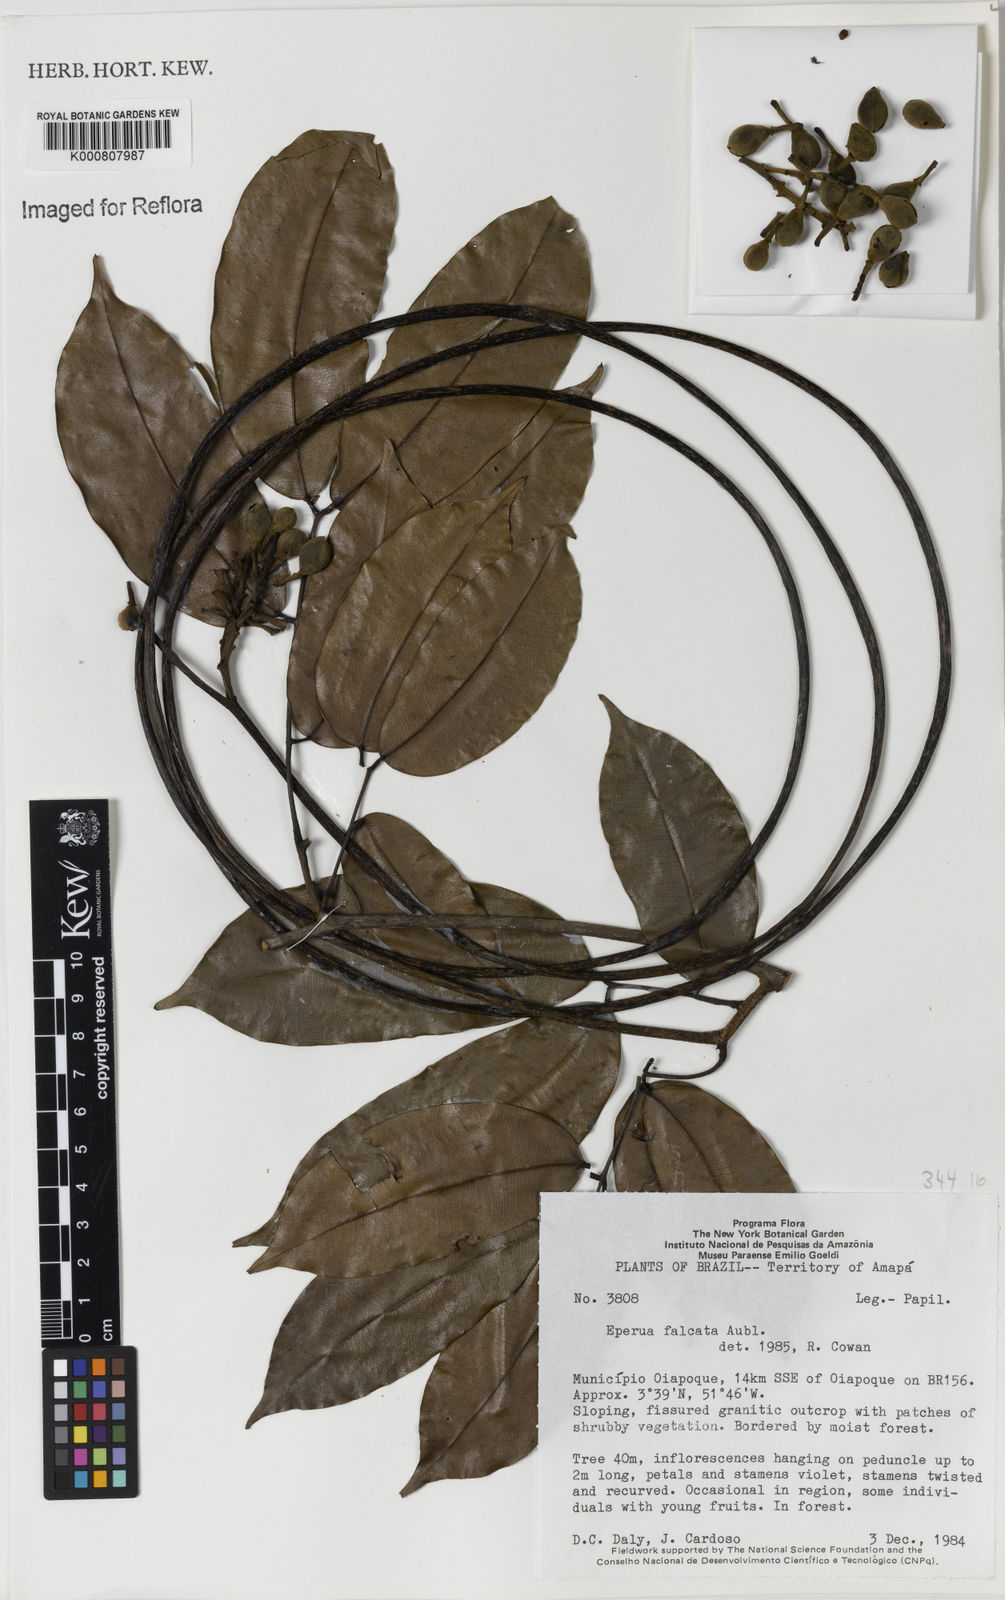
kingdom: Plantae
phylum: Tracheophyta
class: Magnoliopsida
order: Fabales
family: Fabaceae
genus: Eperua
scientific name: Eperua falcata
